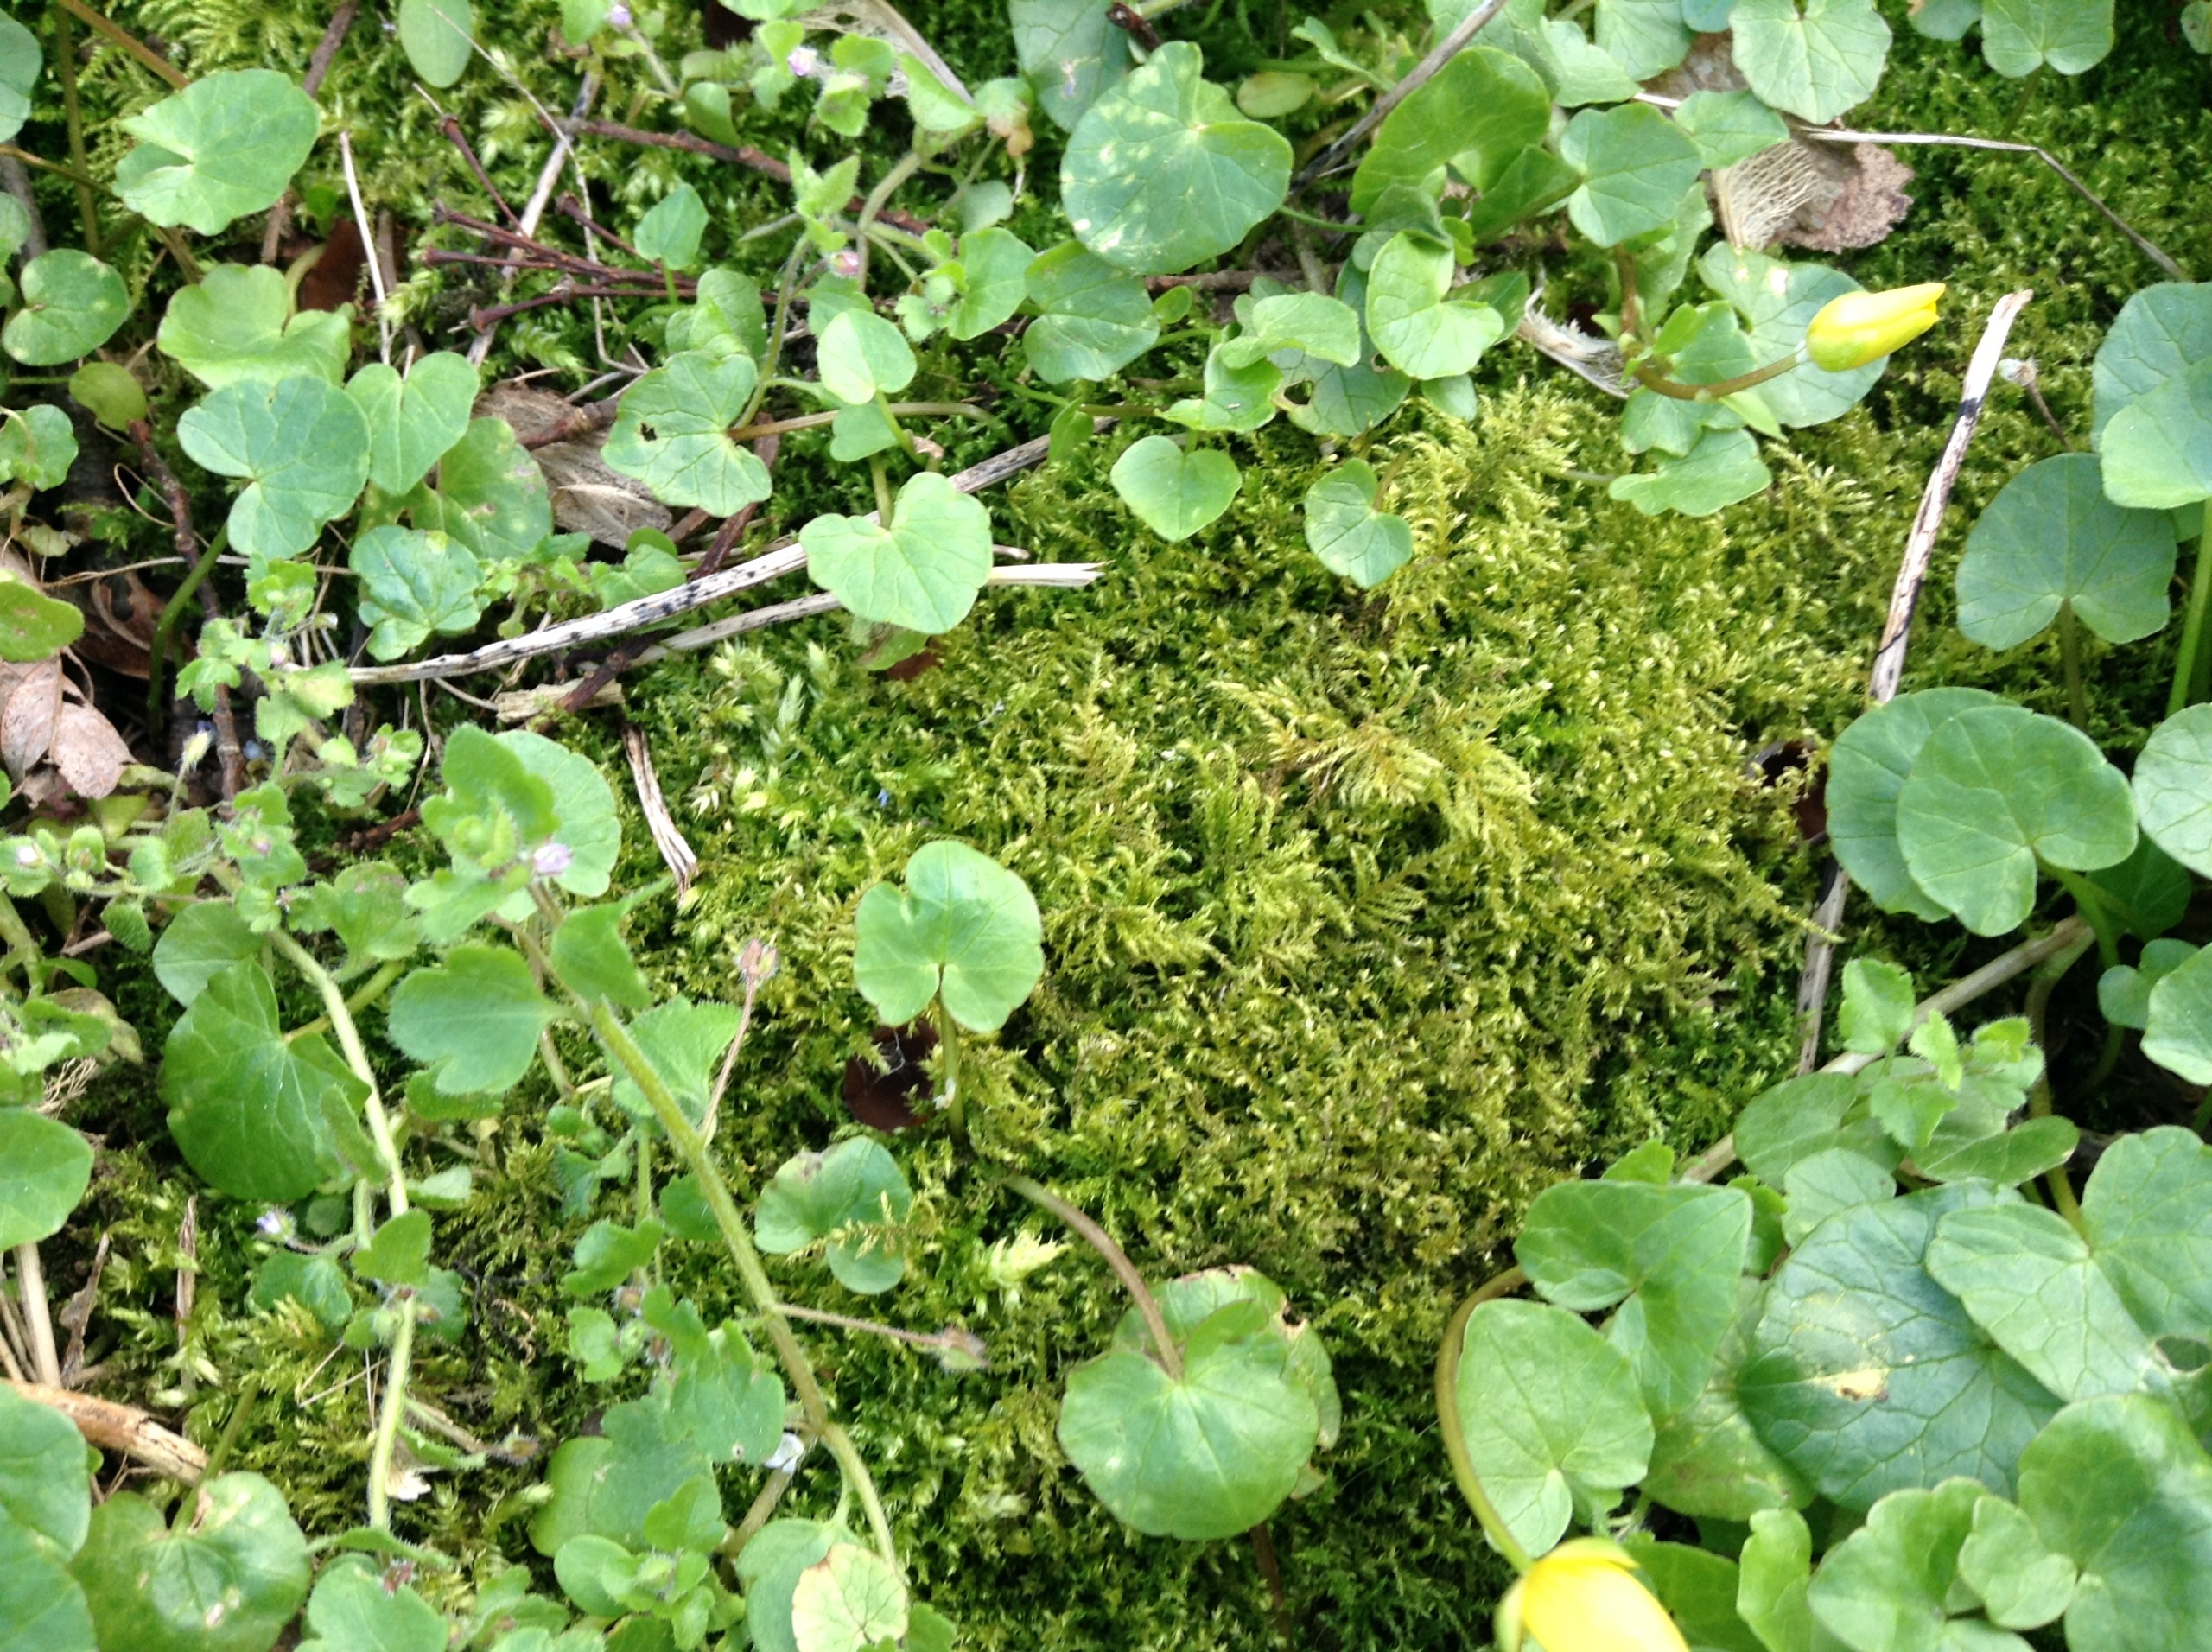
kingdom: Plantae
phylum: Bryophyta
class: Bryopsida
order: Hypnales
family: Brachytheciaceae
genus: Kindbergia
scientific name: Kindbergia praelonga
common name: Forskelligbladet vortetand
